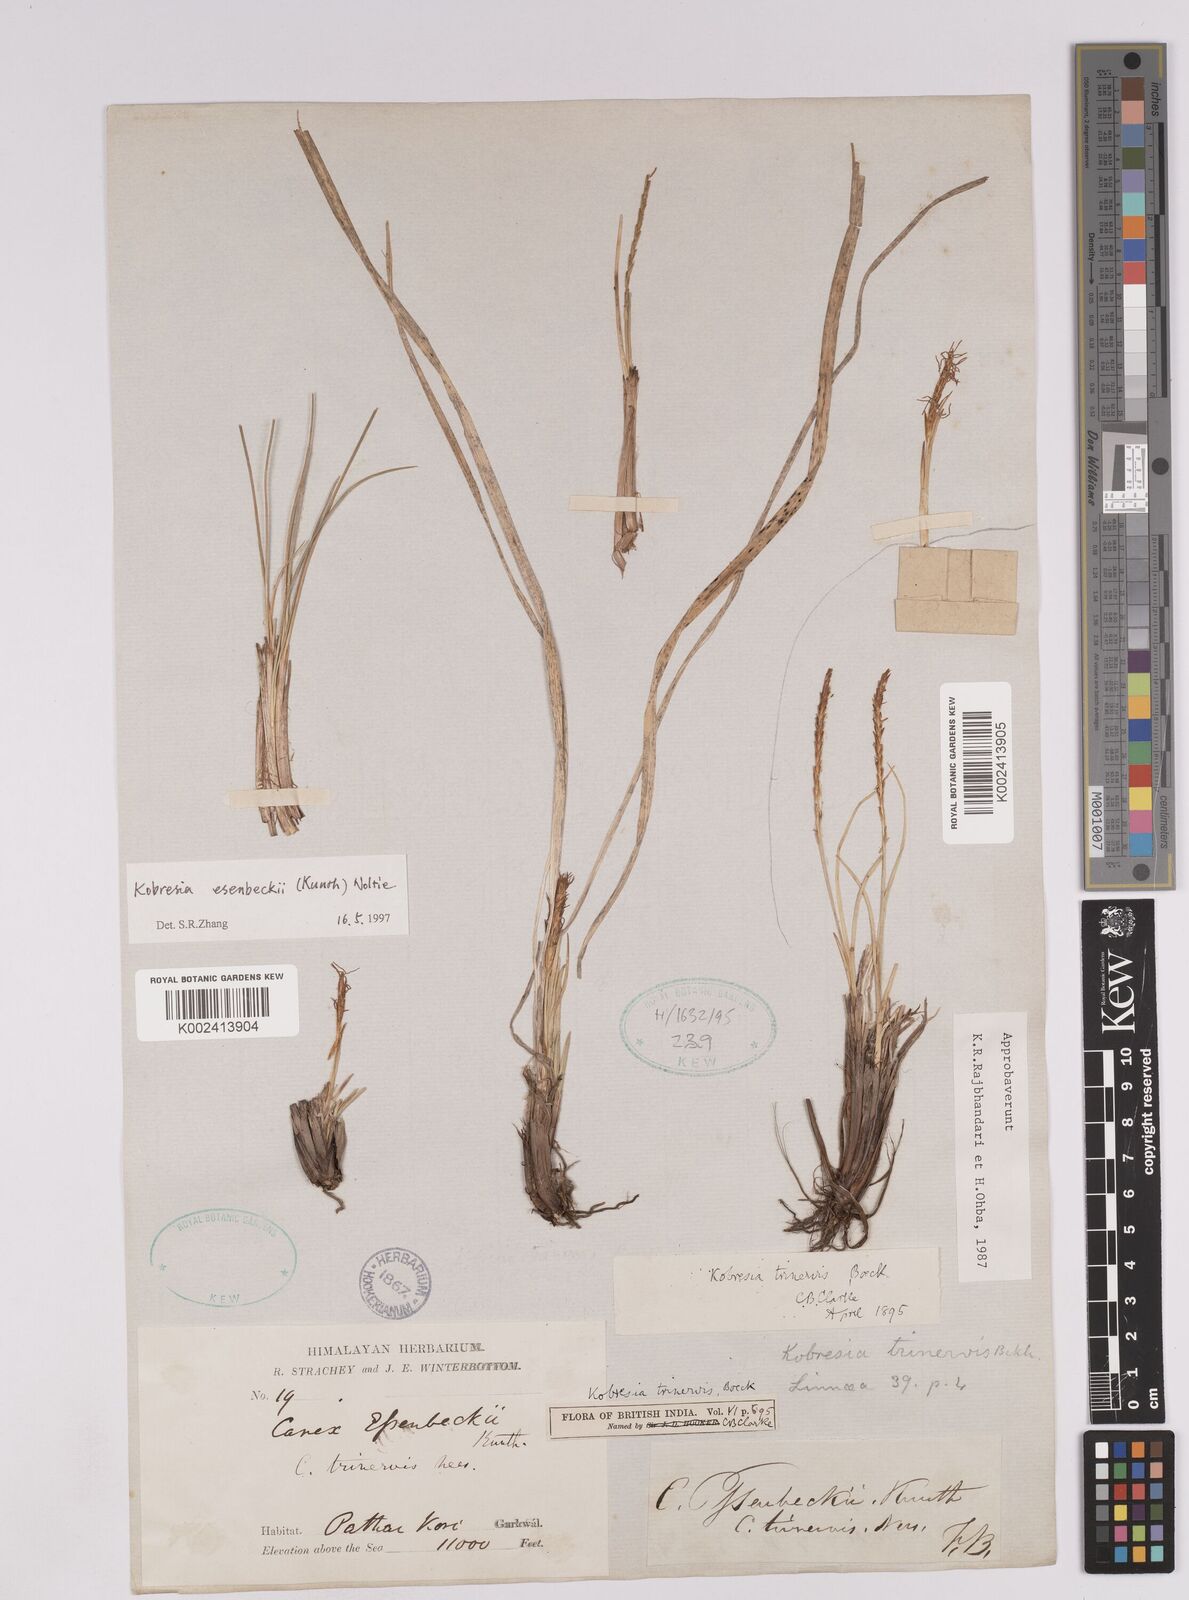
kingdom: Plantae
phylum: Tracheophyta
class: Liliopsida
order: Poales
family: Cyperaceae
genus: Carex
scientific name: Carex esenbeckii
